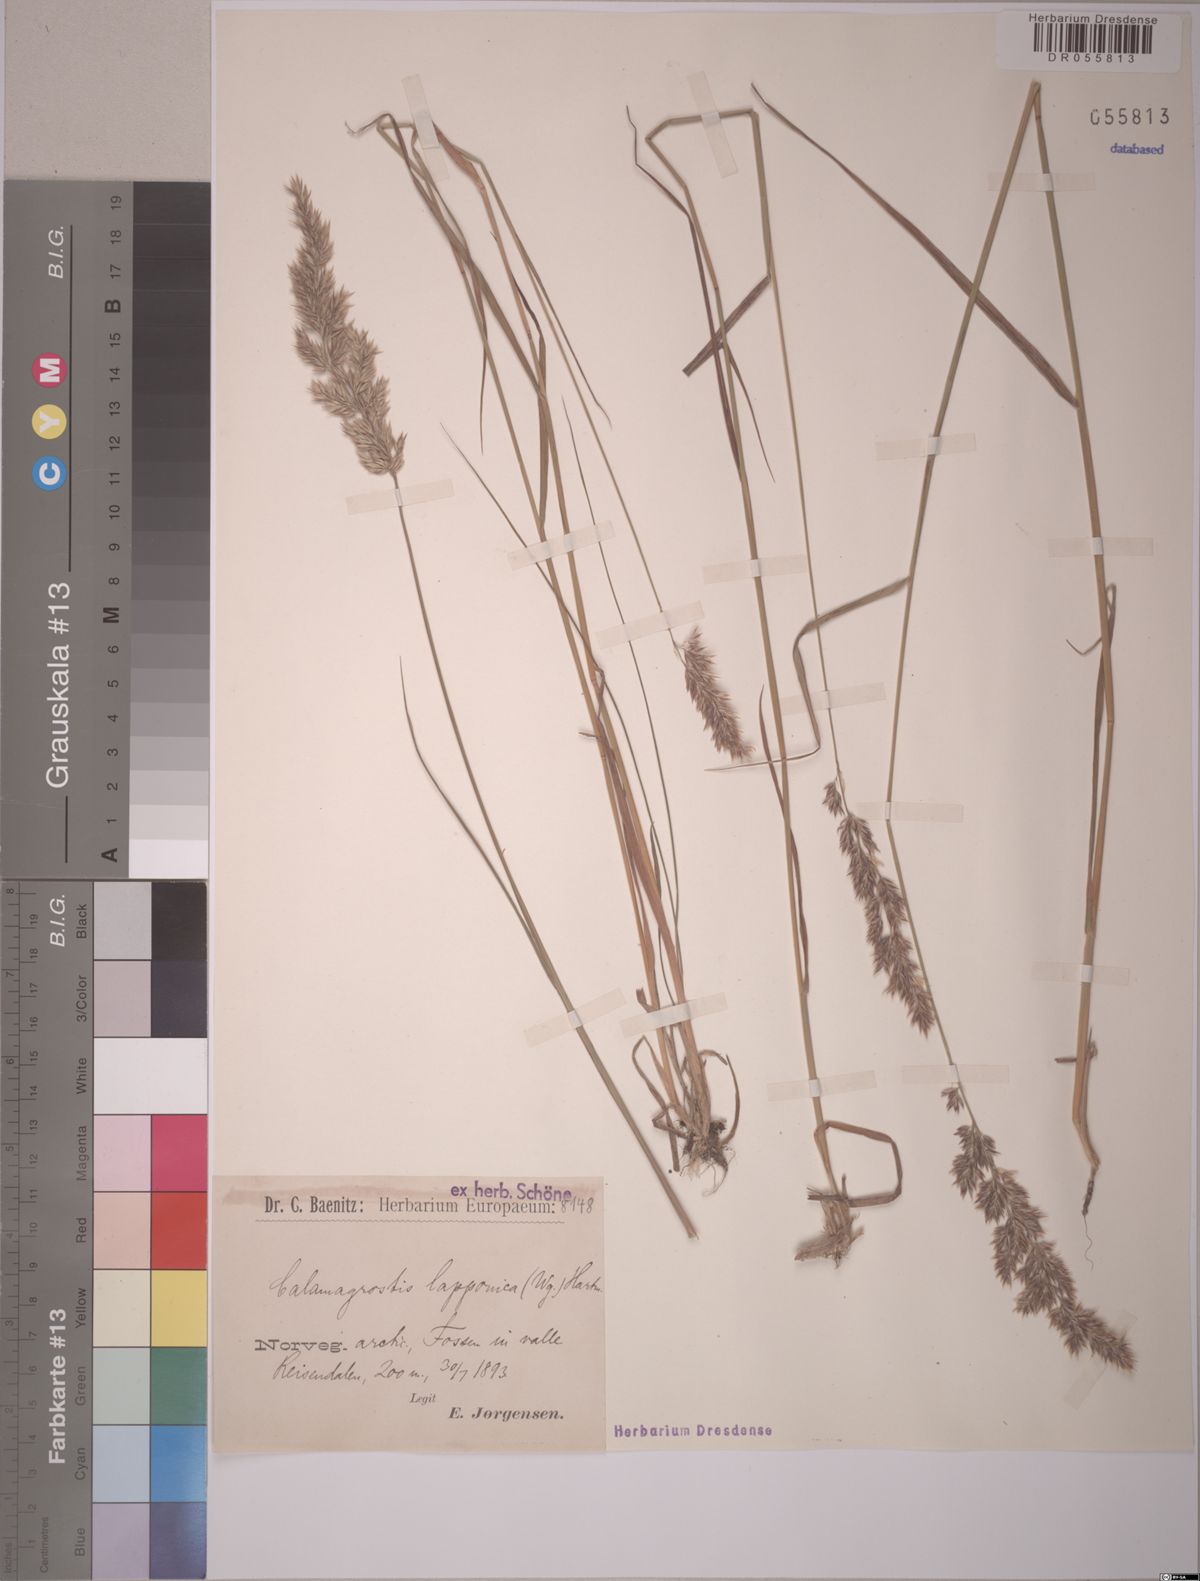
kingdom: Plantae
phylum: Tracheophyta
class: Liliopsida
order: Poales
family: Poaceae
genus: Calamagrostis
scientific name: Calamagrostis lapponica
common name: Lapland reedgrass
